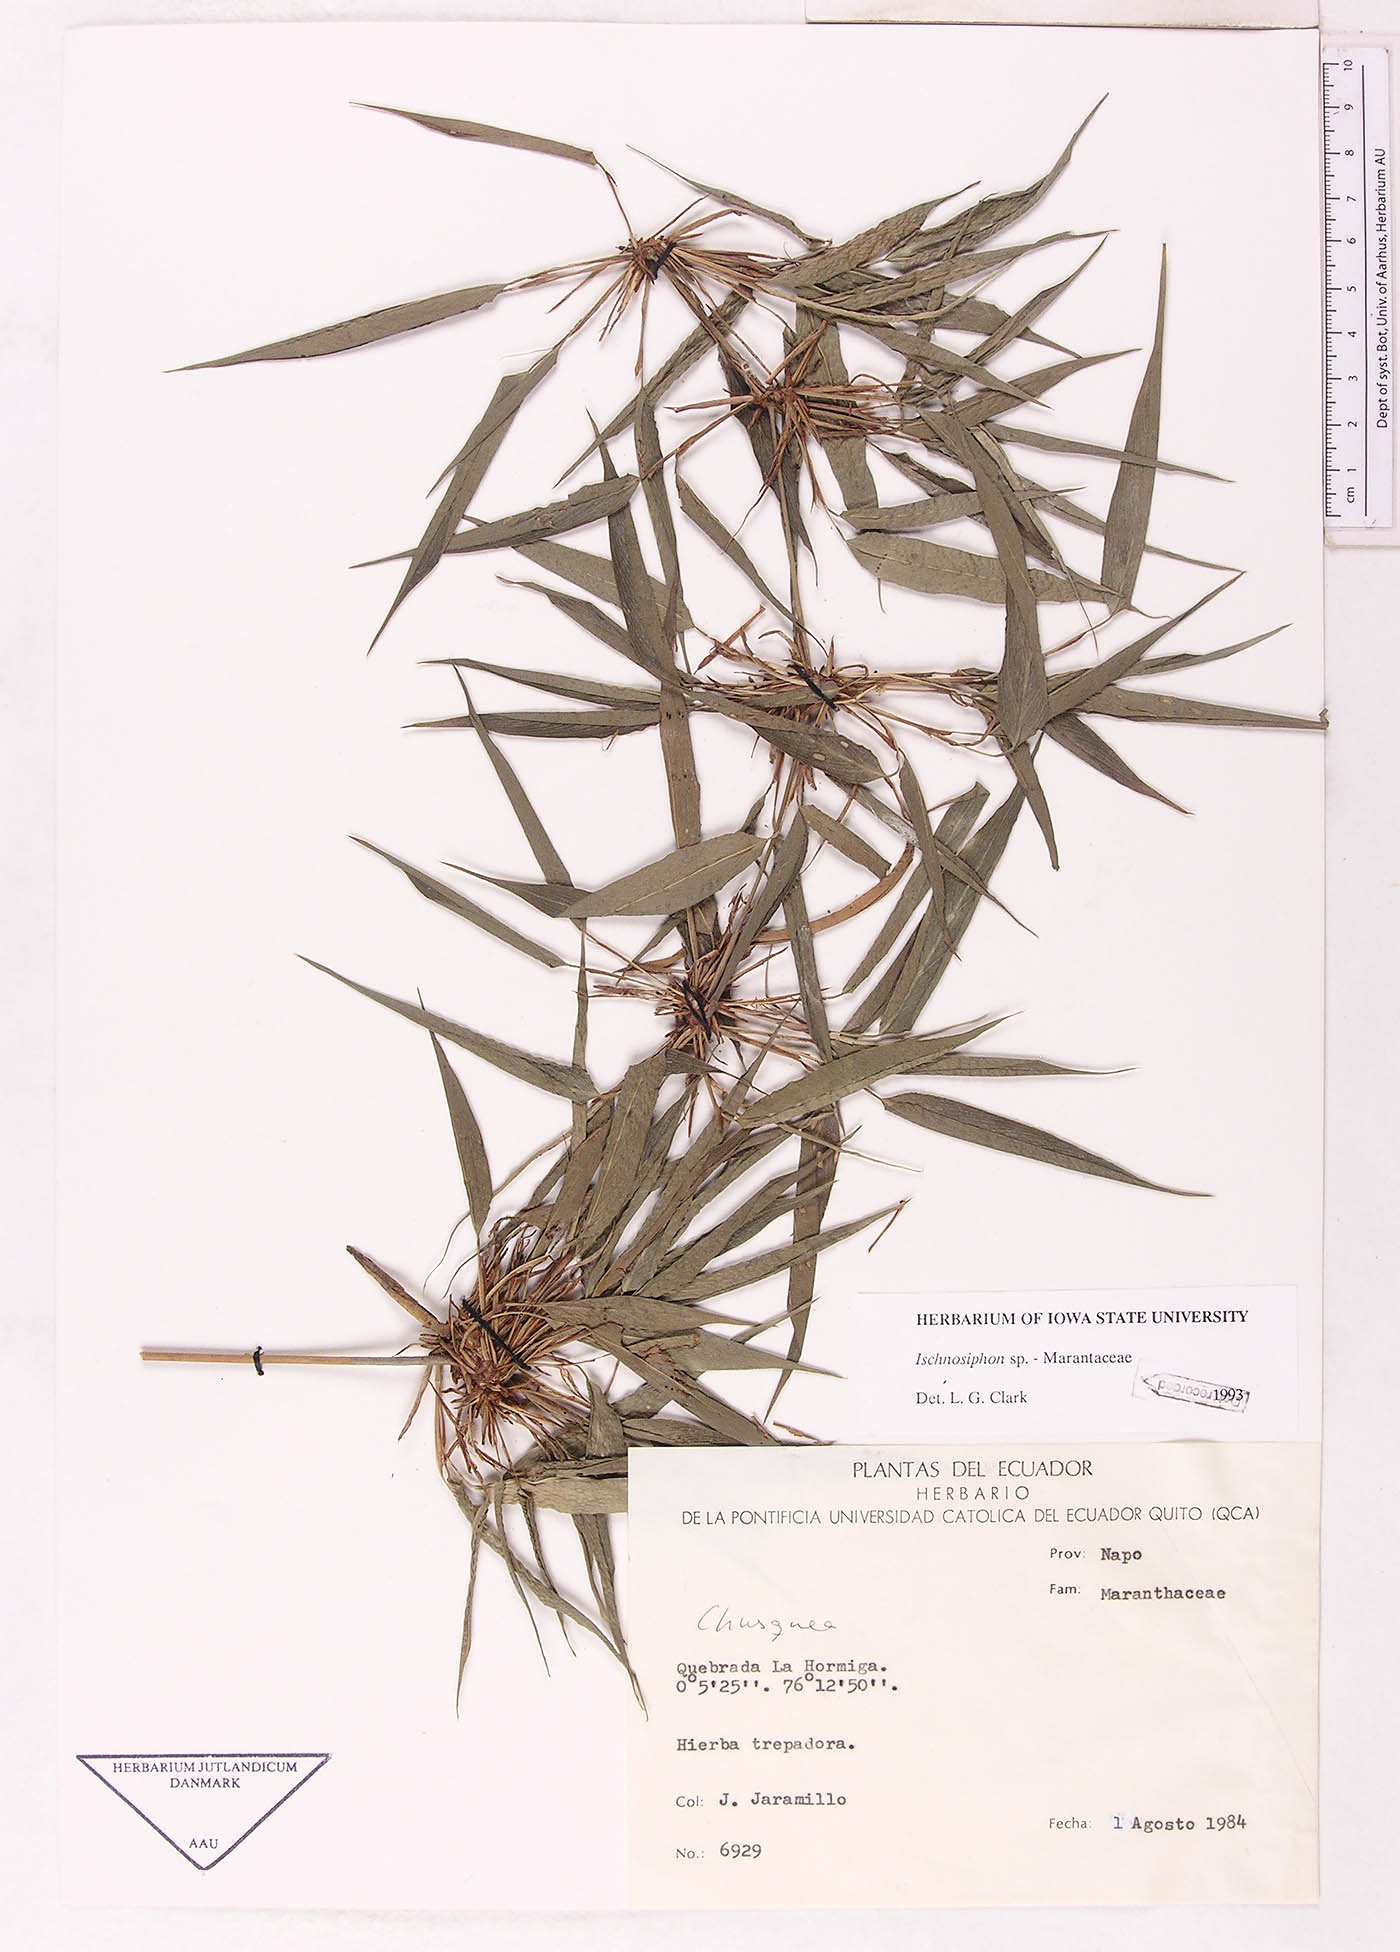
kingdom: Plantae
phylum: Tracheophyta
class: Liliopsida
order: Zingiberales
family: Marantaceae
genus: Ischnosiphon
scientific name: Ischnosiphon
